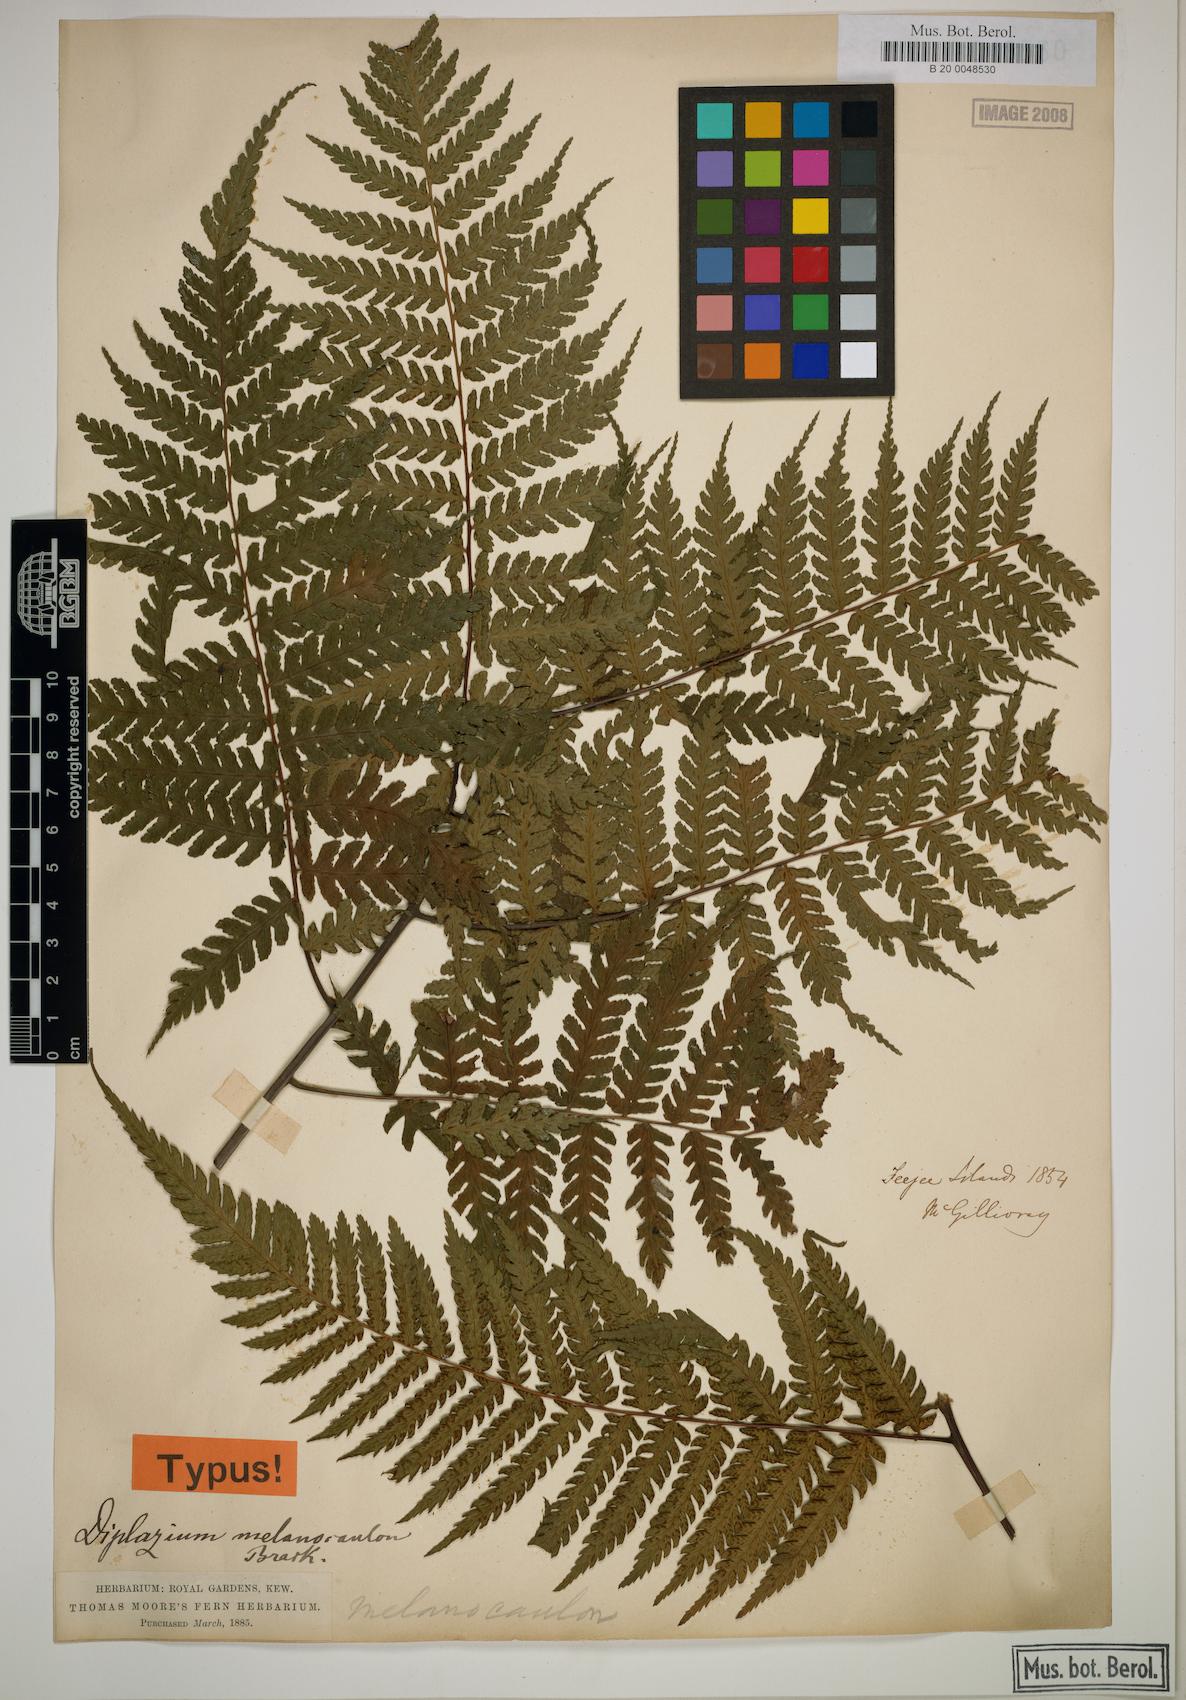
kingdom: Plantae
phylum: Tracheophyta
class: Polypodiopsida
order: Polypodiales
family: Athyriaceae
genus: Diplazium
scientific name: Diplazium melanocaulon
